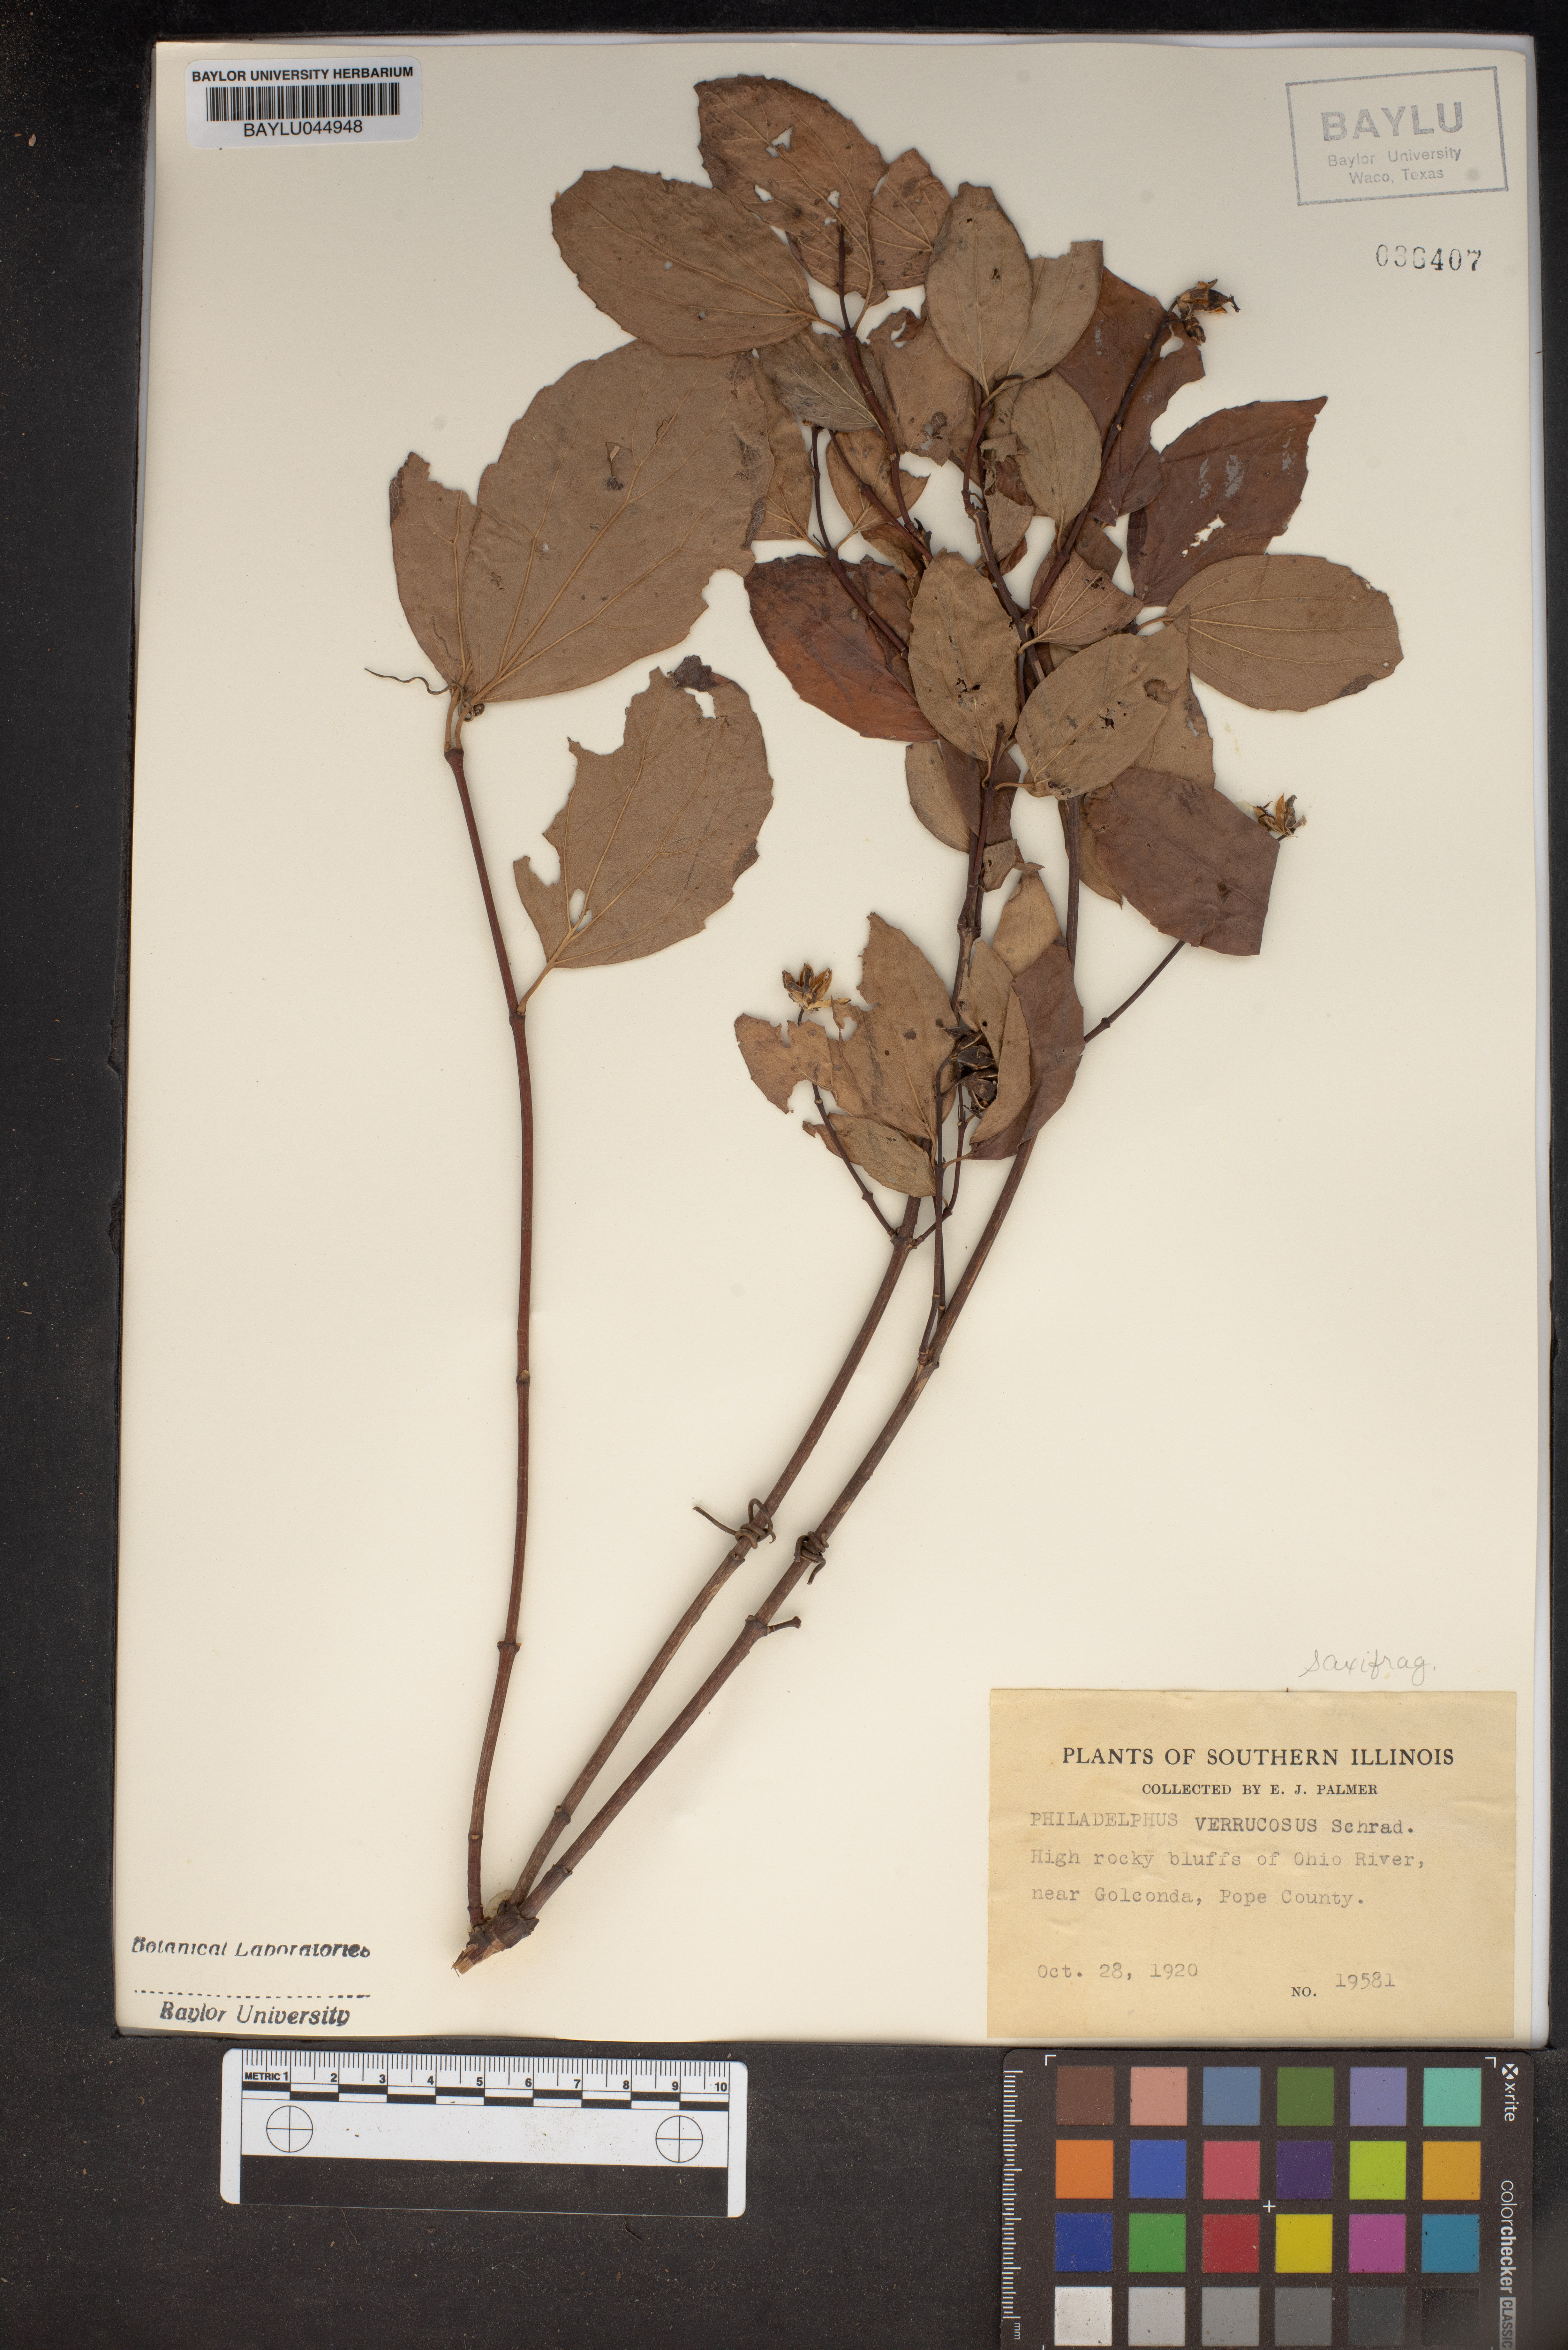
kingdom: Plantae
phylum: Tracheophyta
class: Magnoliopsida
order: Cornales
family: Hydrangeaceae
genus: Philadelphus
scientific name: Philadelphus pubescens
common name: Broadleaf mock orange
